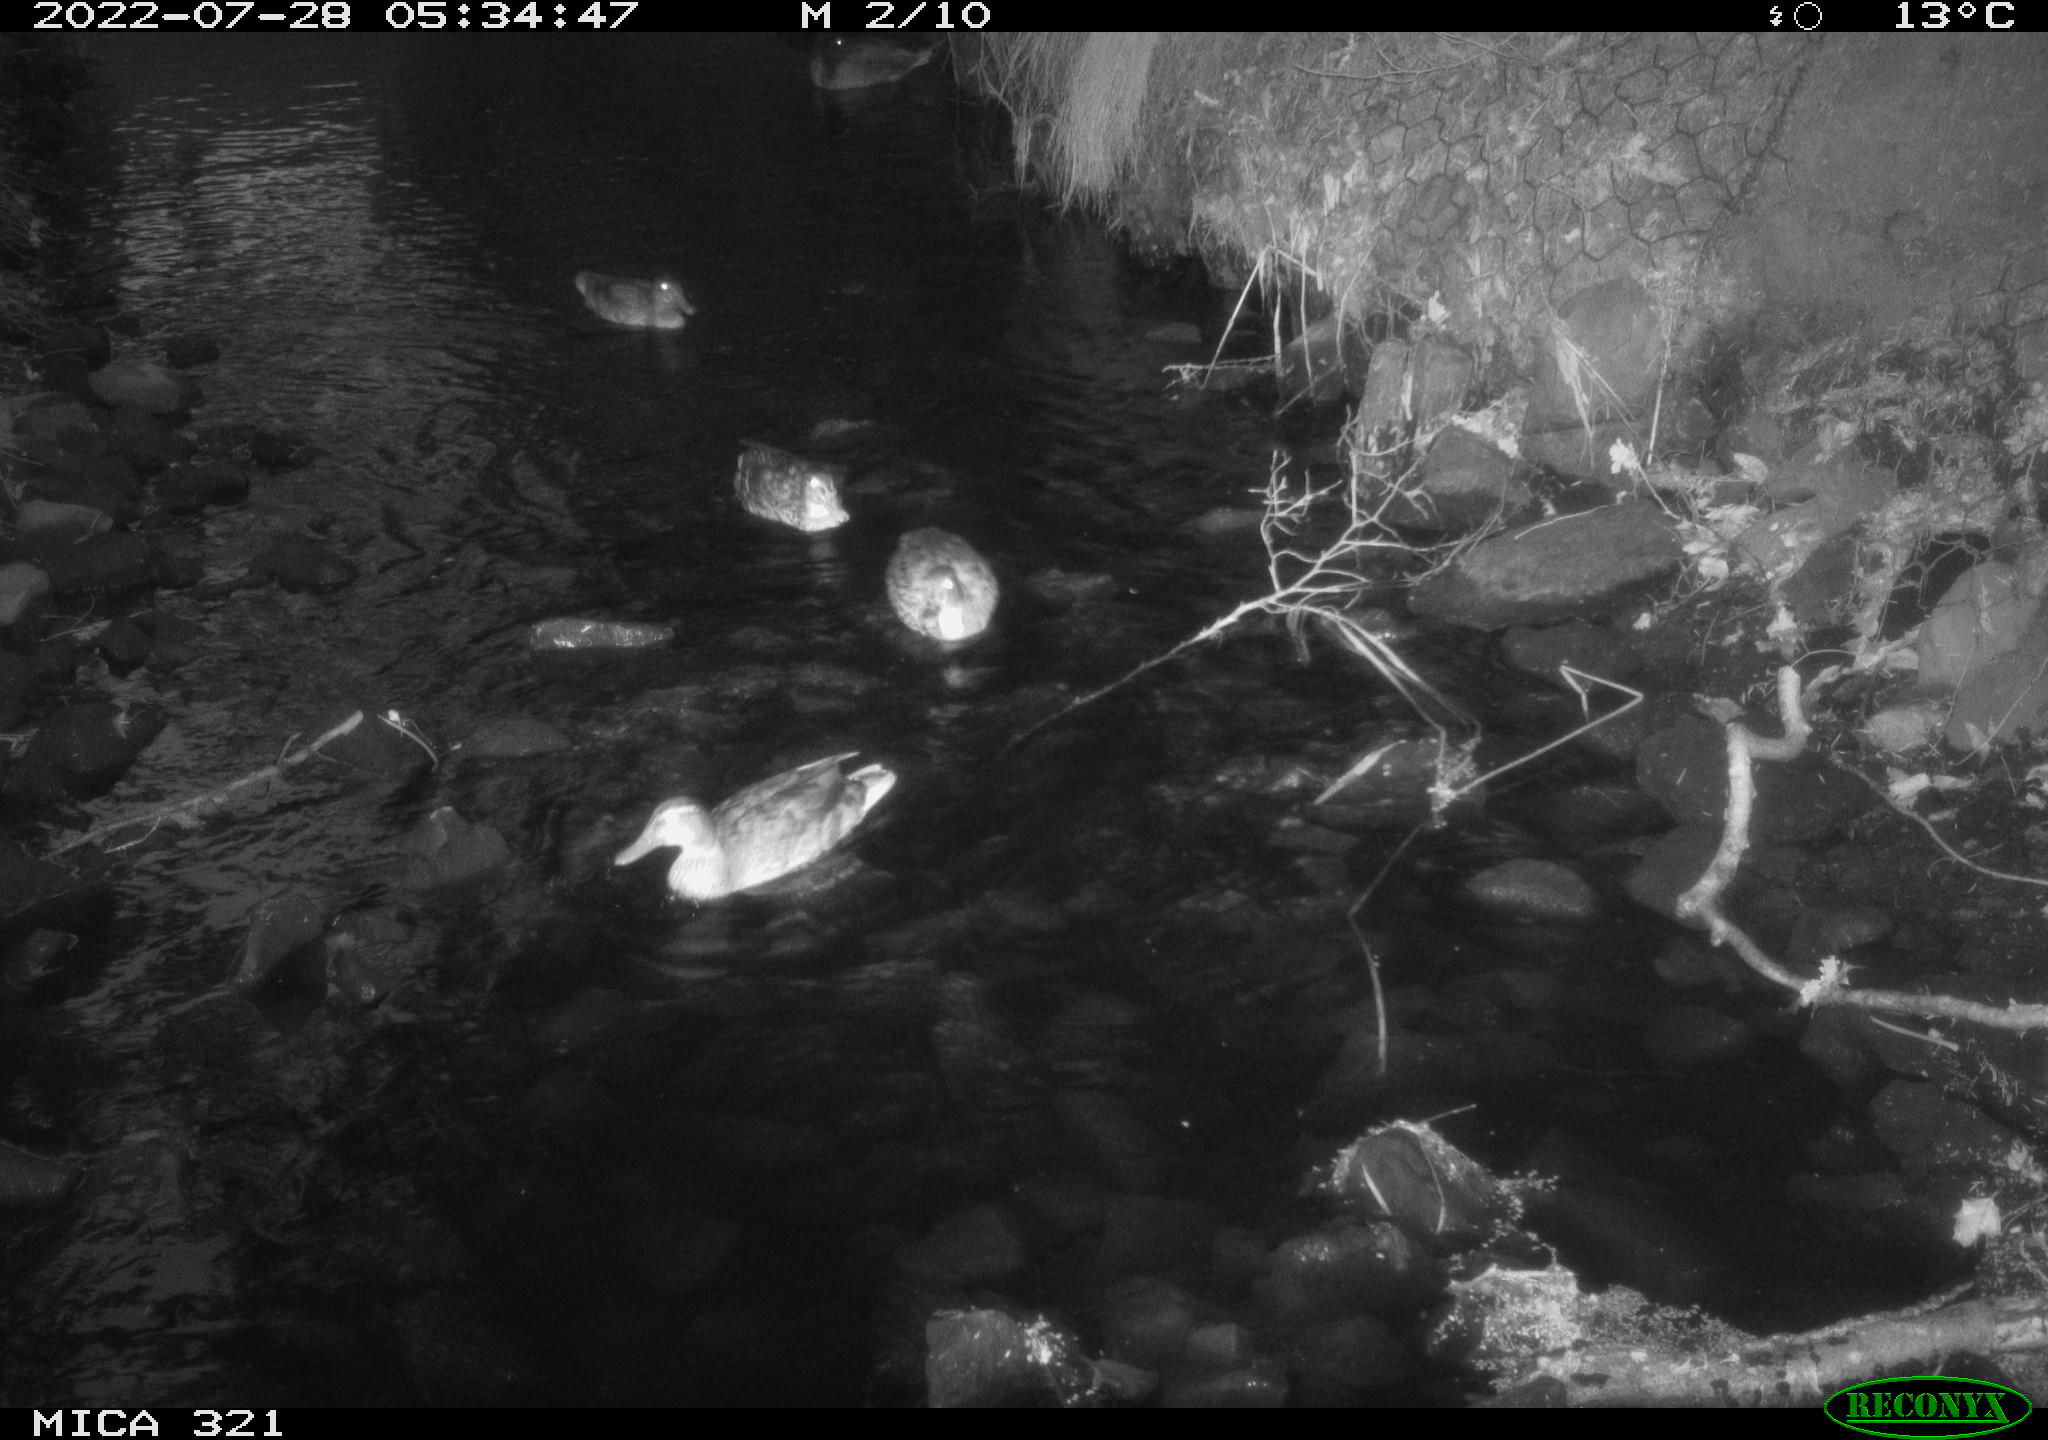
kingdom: Animalia
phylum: Chordata
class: Aves
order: Anseriformes
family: Anatidae
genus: Anas
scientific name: Anas platyrhynchos
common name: Mallard
